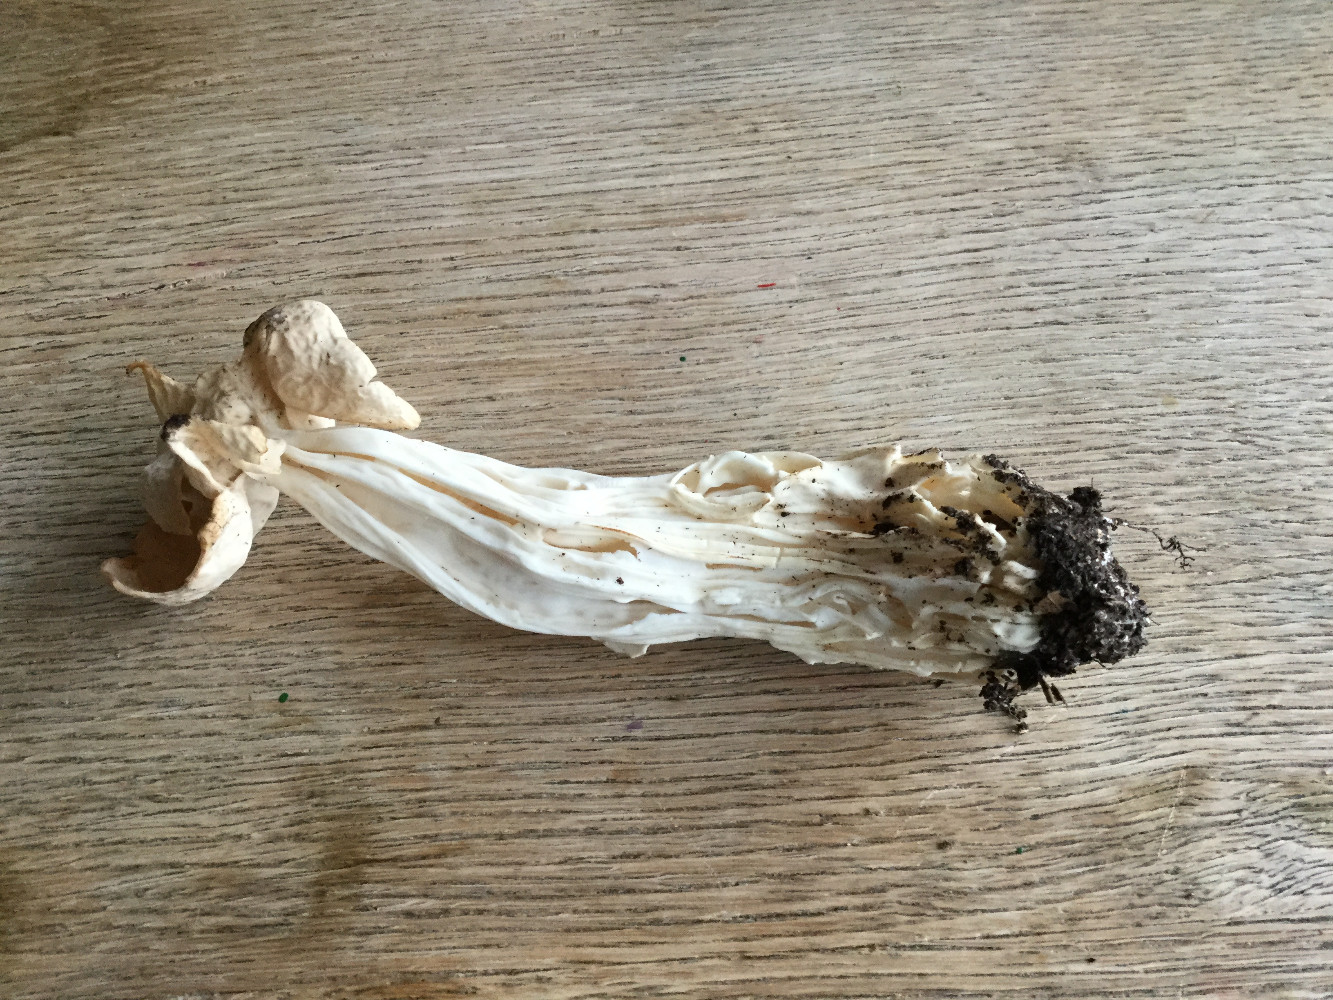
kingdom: Fungi
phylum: Ascomycota
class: Pezizomycetes
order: Pezizales
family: Helvellaceae
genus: Helvella
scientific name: Helvella crispa
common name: kruset foldhat
